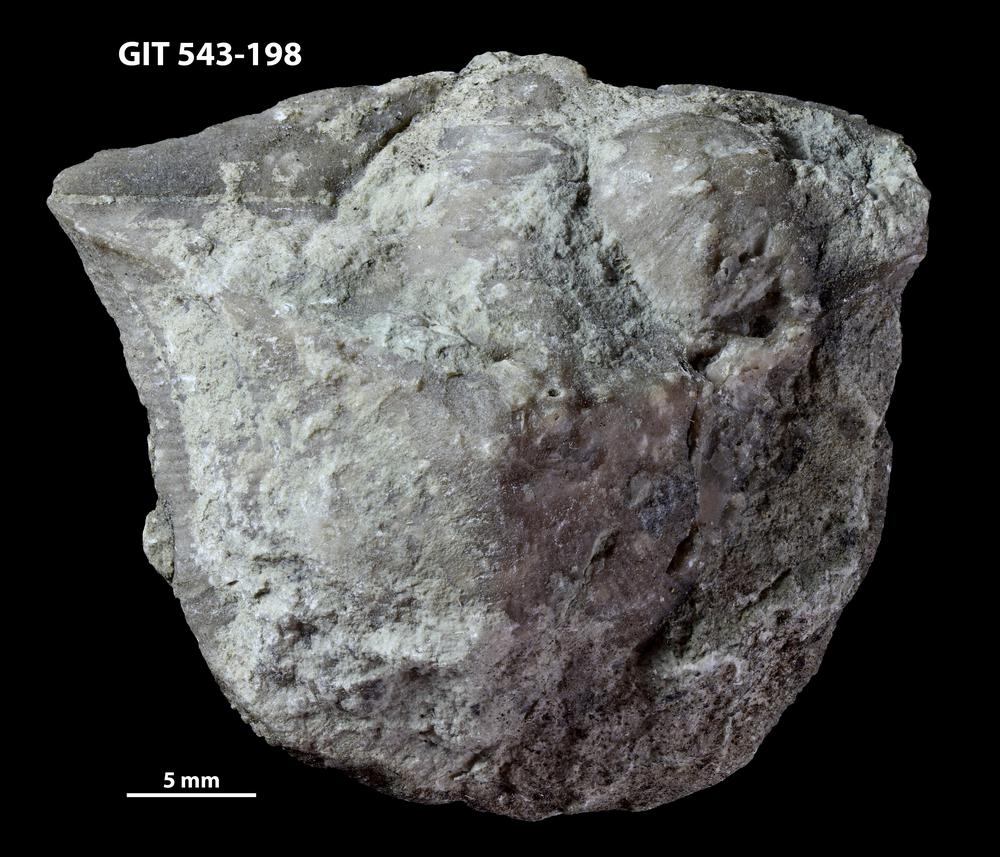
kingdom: Animalia
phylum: Brachiopoda
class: Rhynchonellata
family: Clitambonitidae
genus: Clinambon
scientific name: Clinambon anomalus
